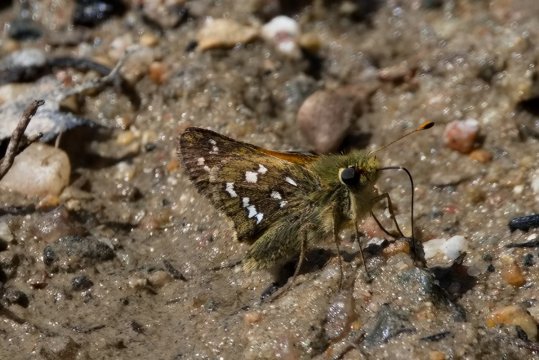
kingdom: Animalia
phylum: Arthropoda
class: Insecta
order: Lepidoptera
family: Hesperiidae
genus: Hesperia
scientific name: Hesperia comma
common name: Common Branded Skipper
